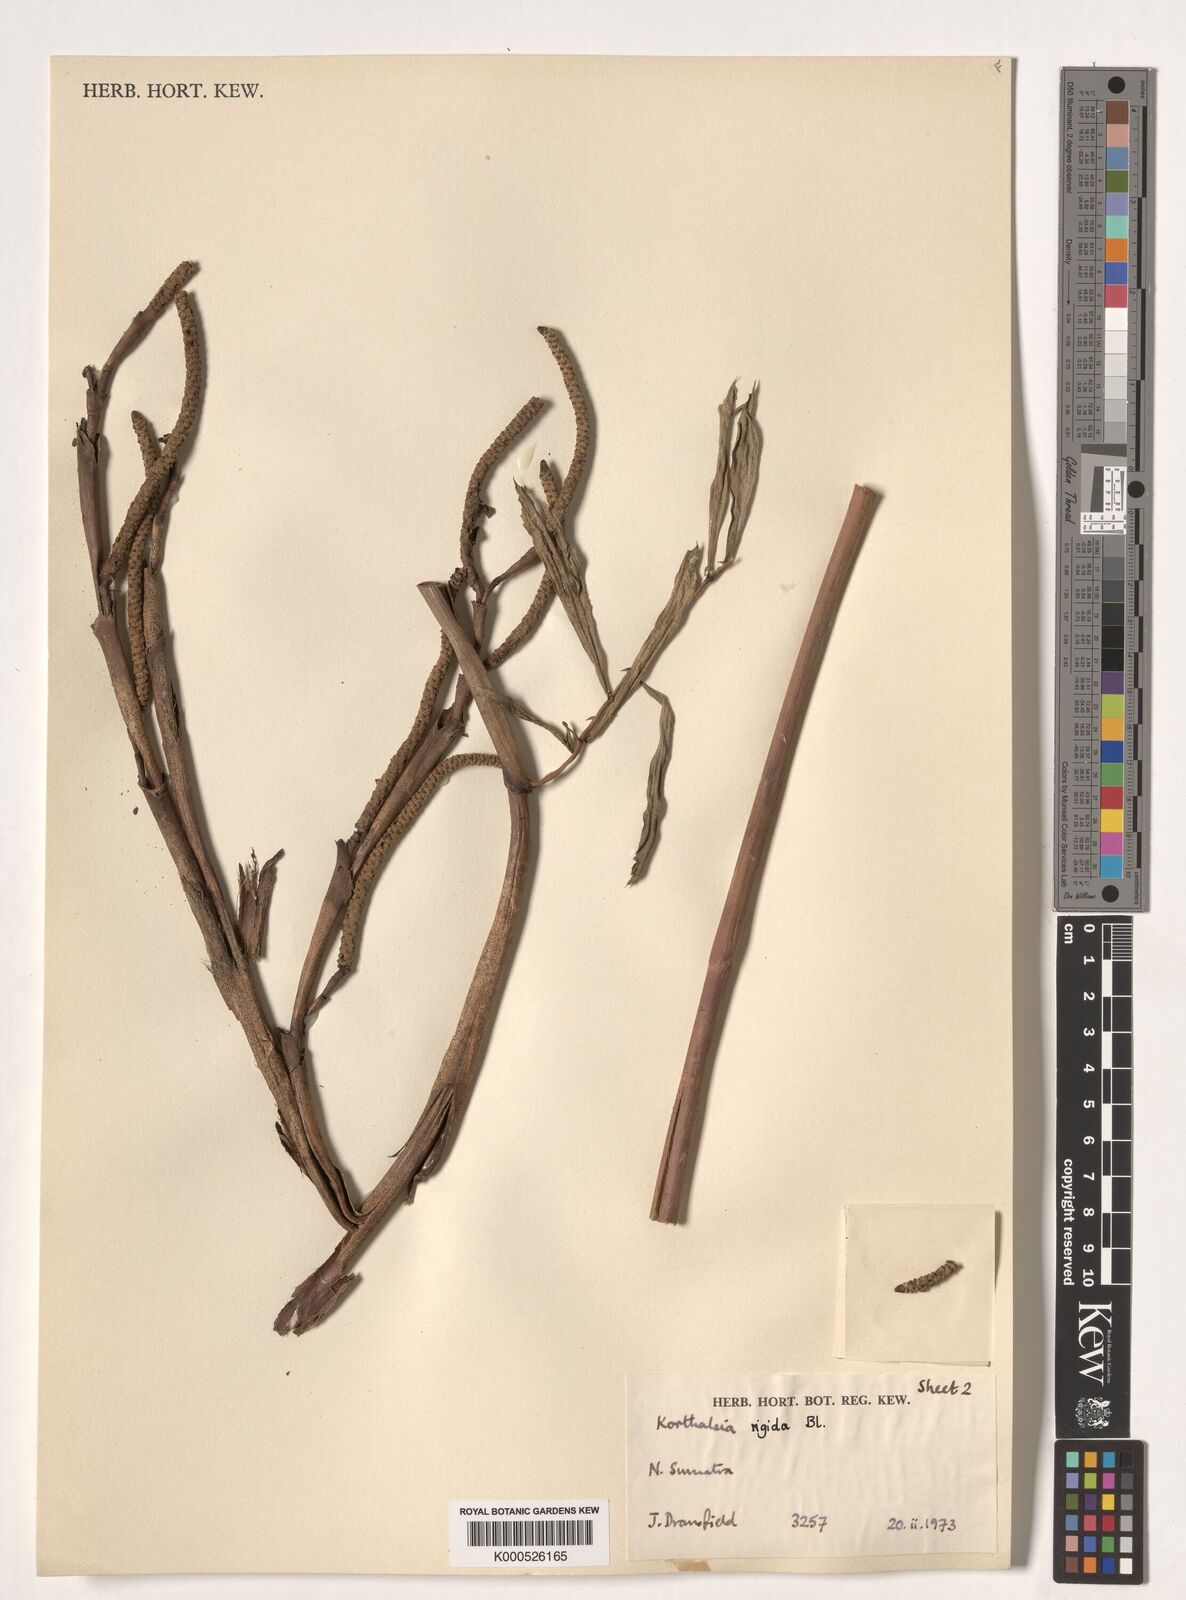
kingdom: Plantae
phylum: Tracheophyta
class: Liliopsida
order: Arecales
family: Arecaceae
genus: Korthalsia
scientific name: Korthalsia rigida
